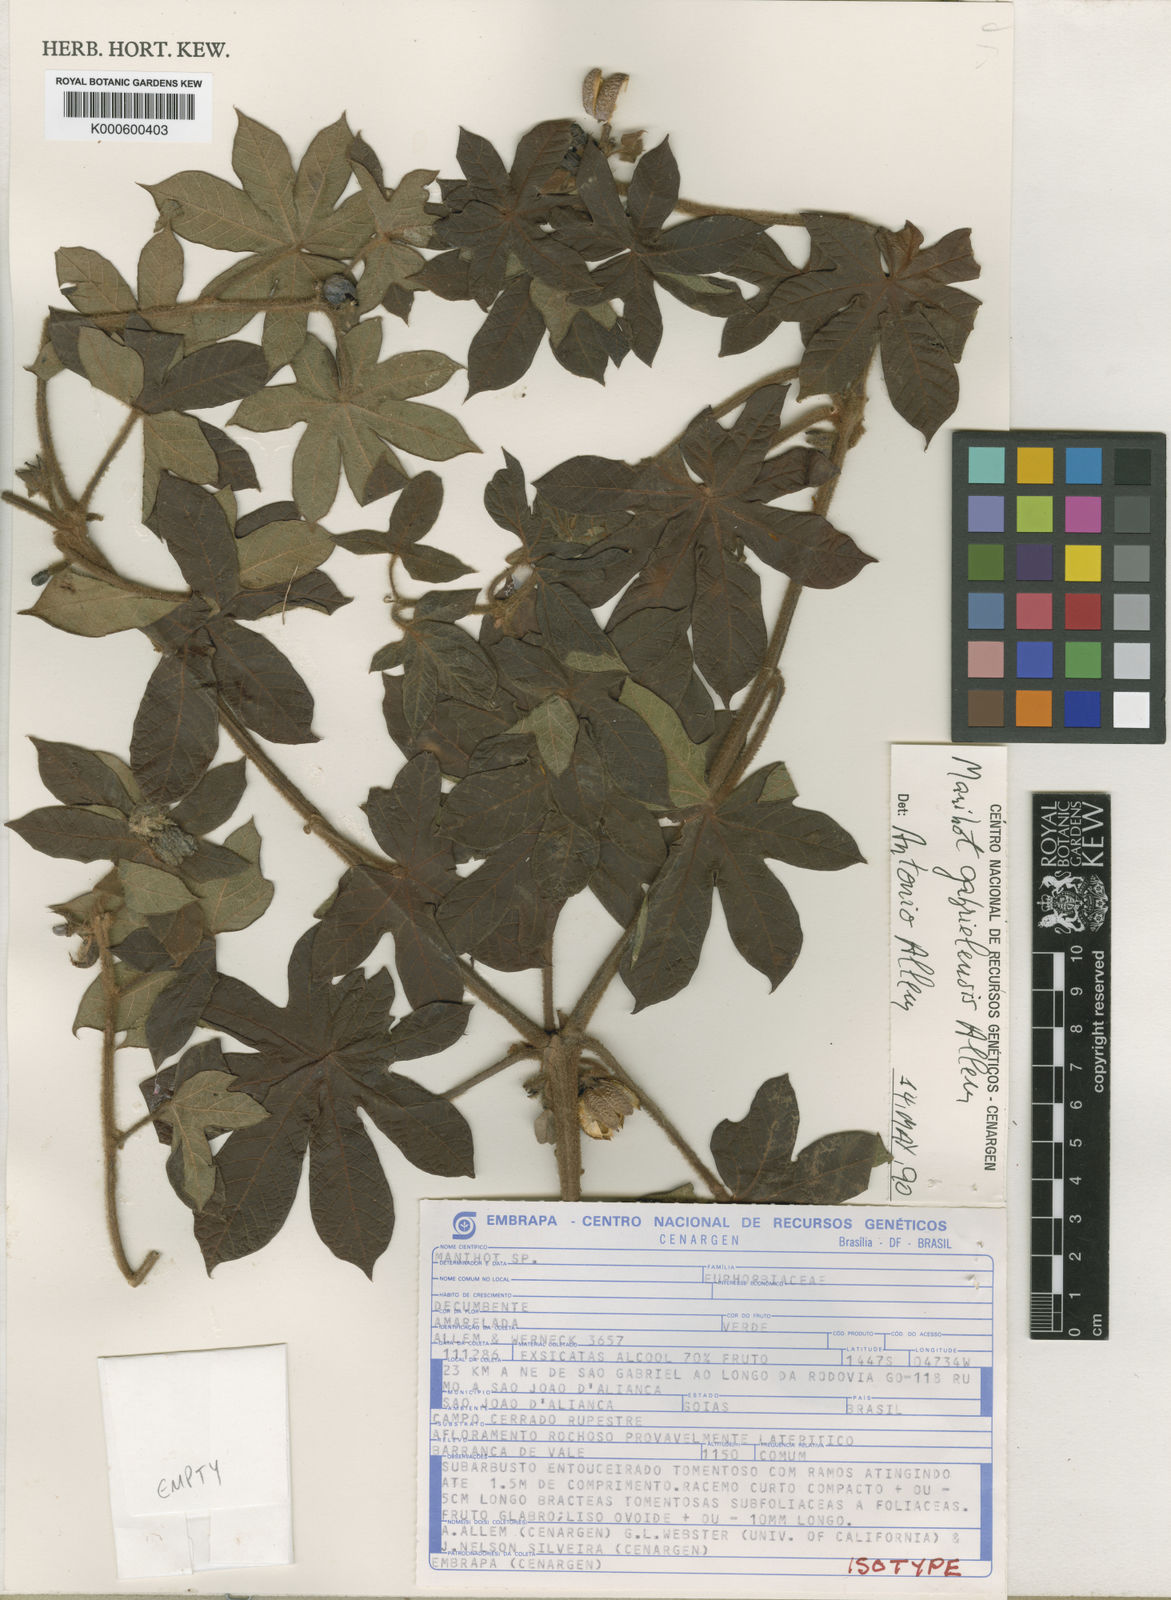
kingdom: Plantae
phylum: Tracheophyta
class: Magnoliopsida
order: Malpighiales
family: Euphorbiaceae
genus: Manihot
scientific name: Manihot
